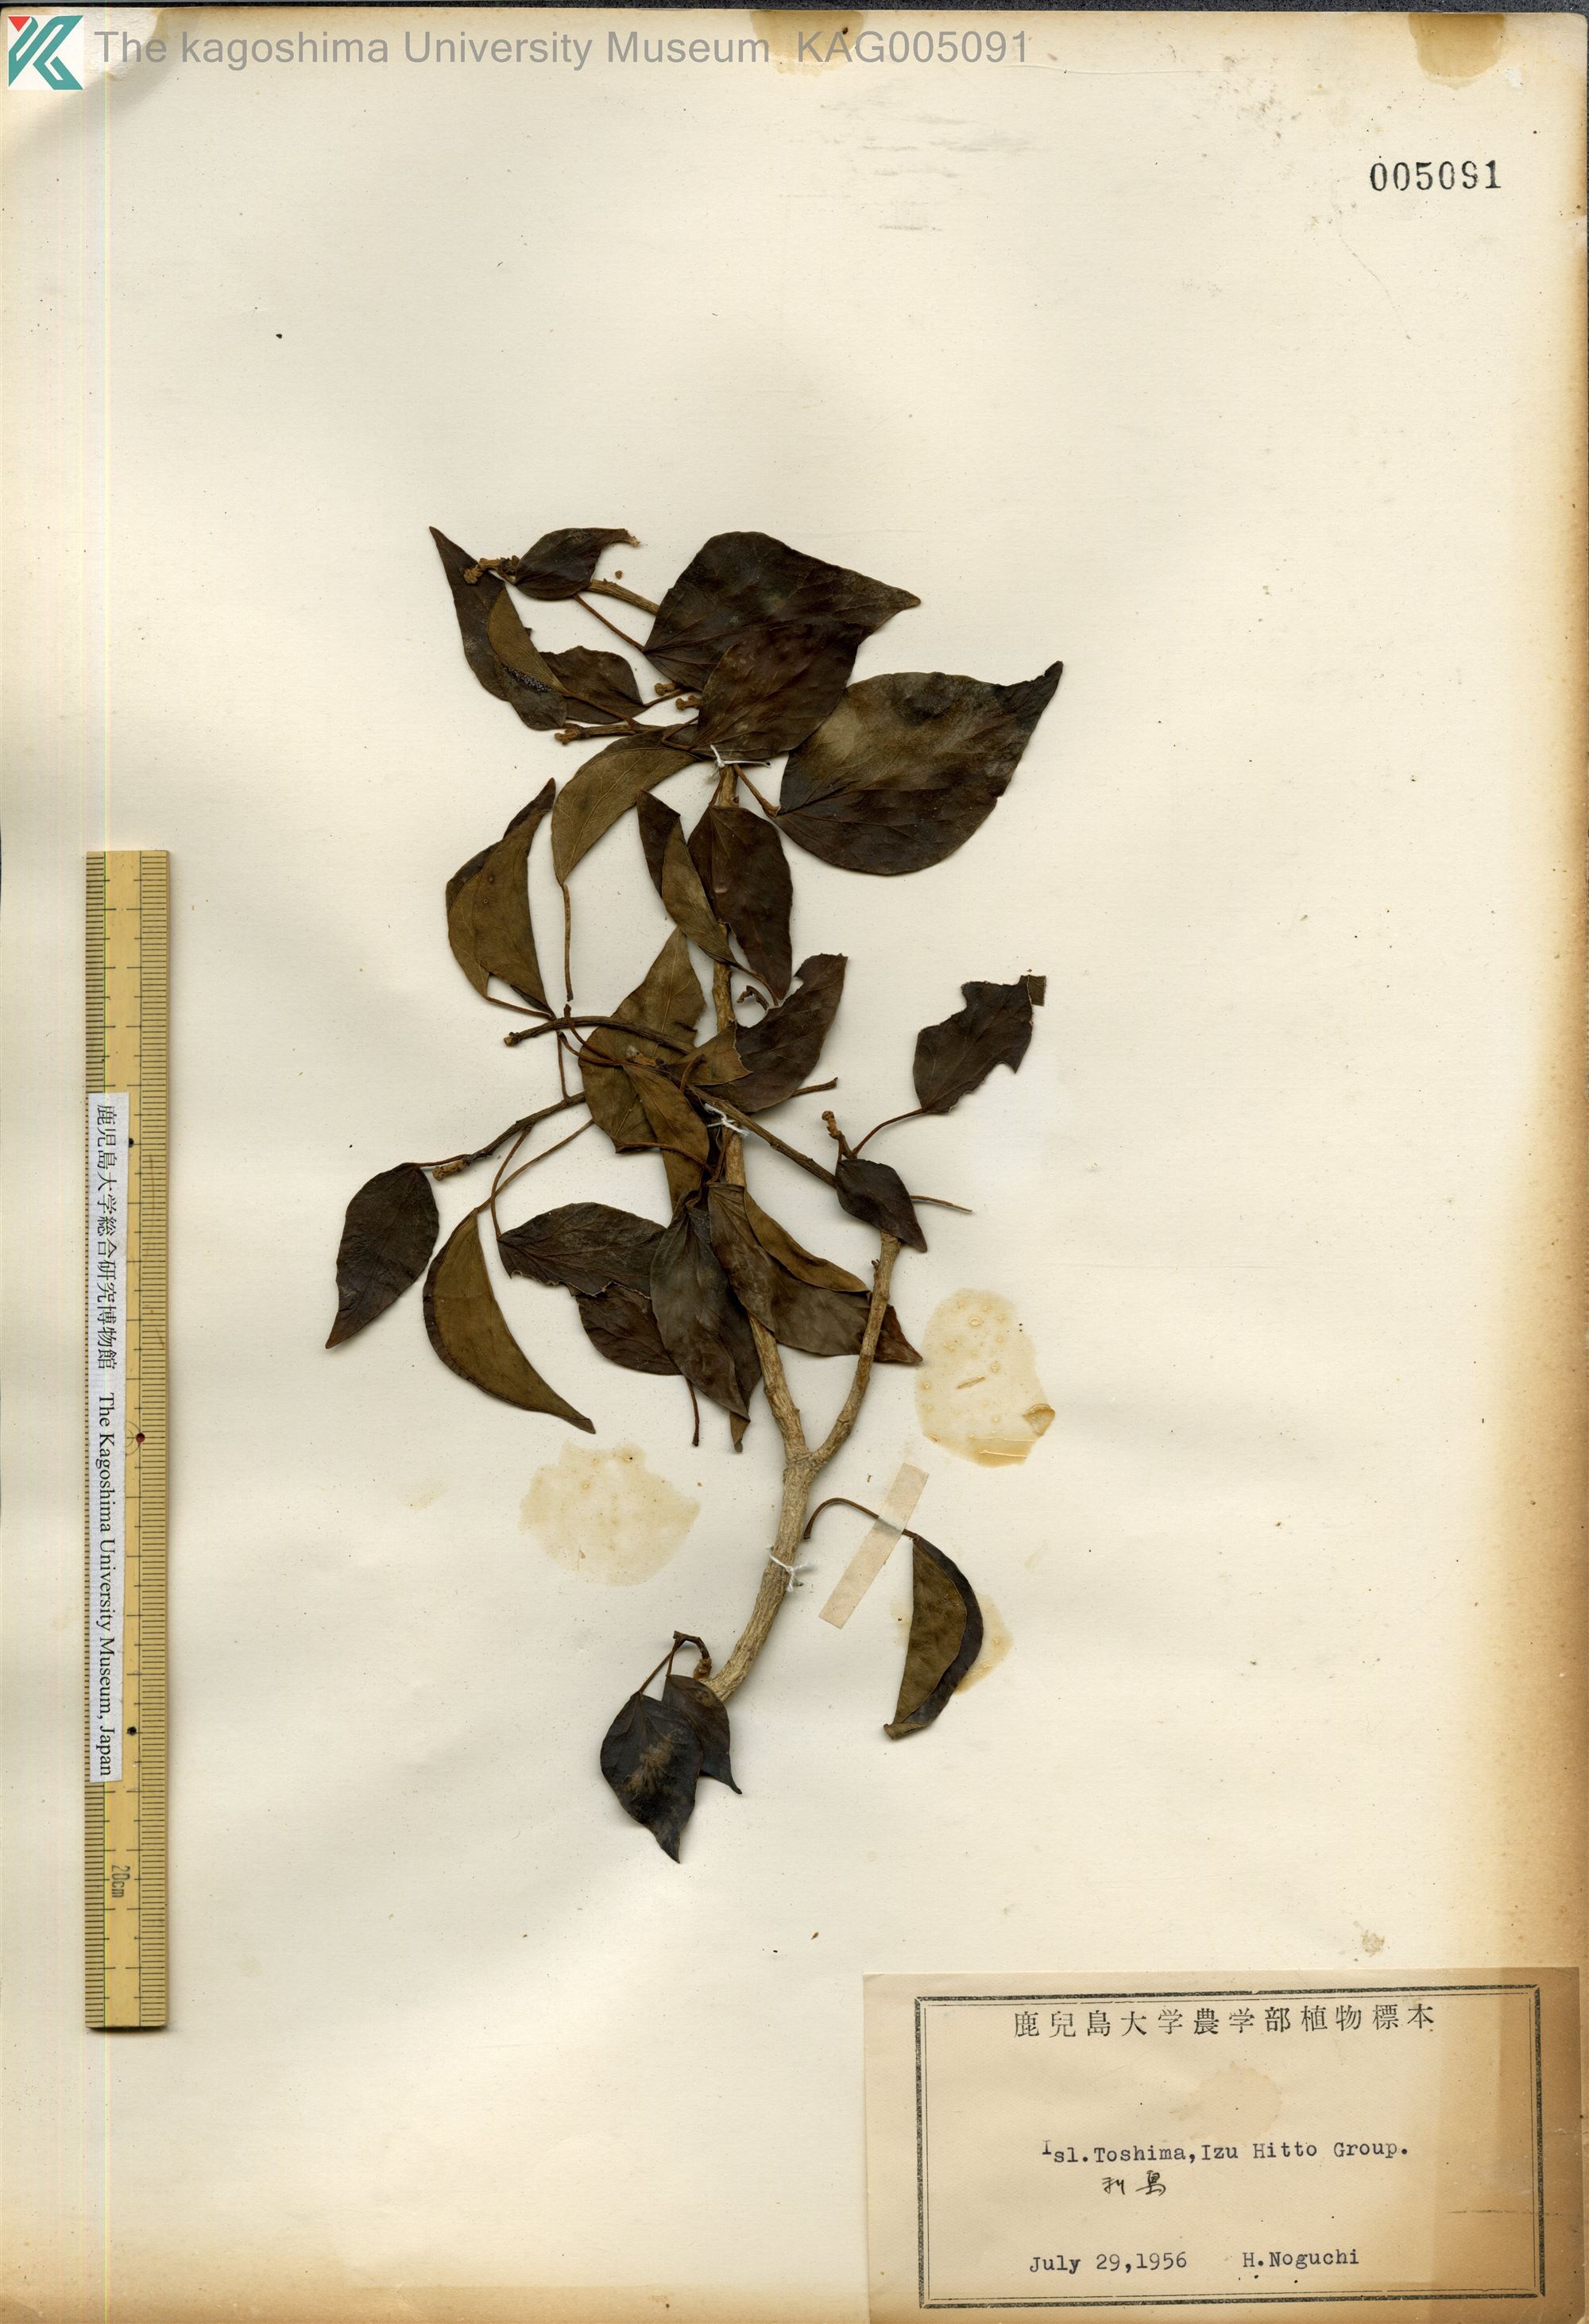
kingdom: Plantae
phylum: Tracheophyta
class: Magnoliopsida
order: Apiales
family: Araliaceae
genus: Hedera
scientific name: Hedera rhombea
